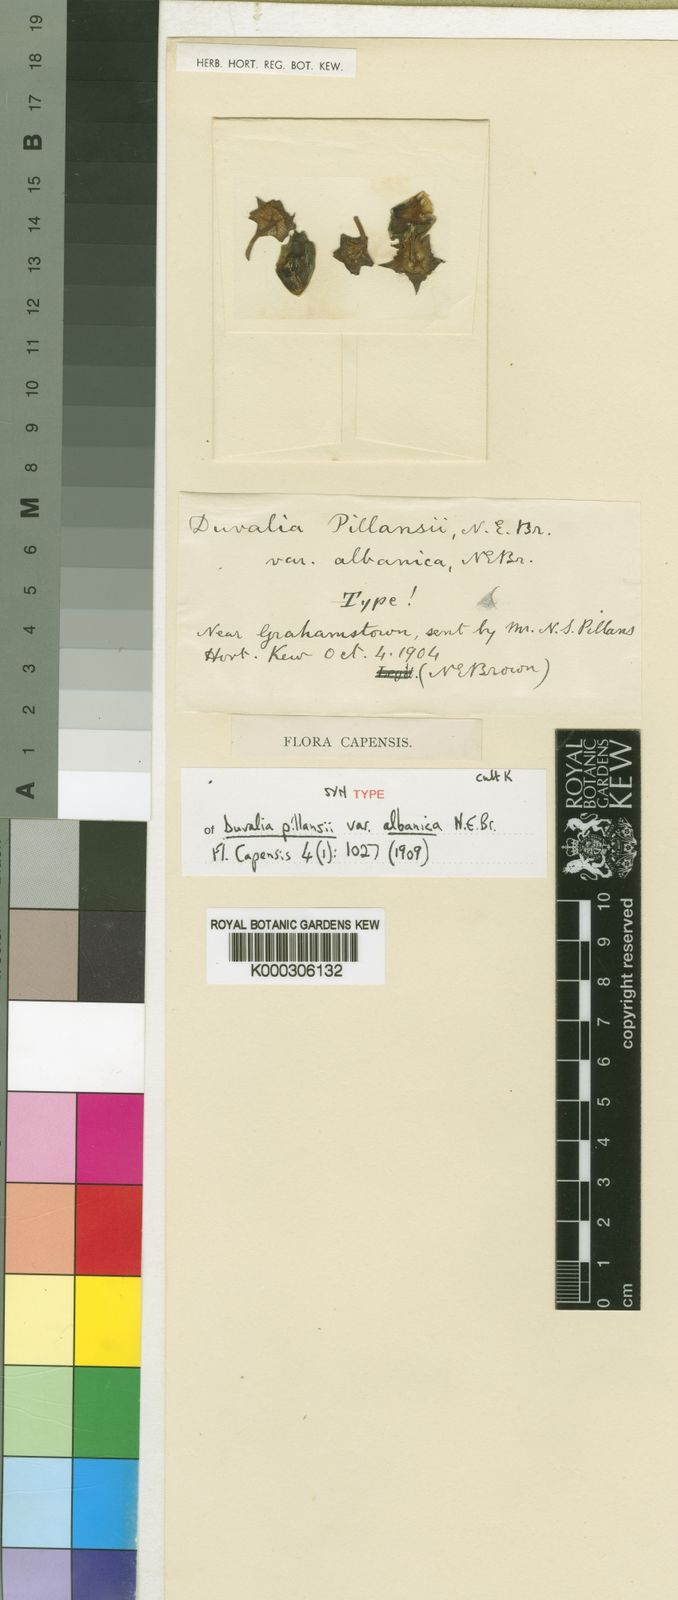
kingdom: Plantae
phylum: Tracheophyta
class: Magnoliopsida
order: Gentianales
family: Apocynaceae
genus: Ceropegia
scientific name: Ceropegia pillansiana
